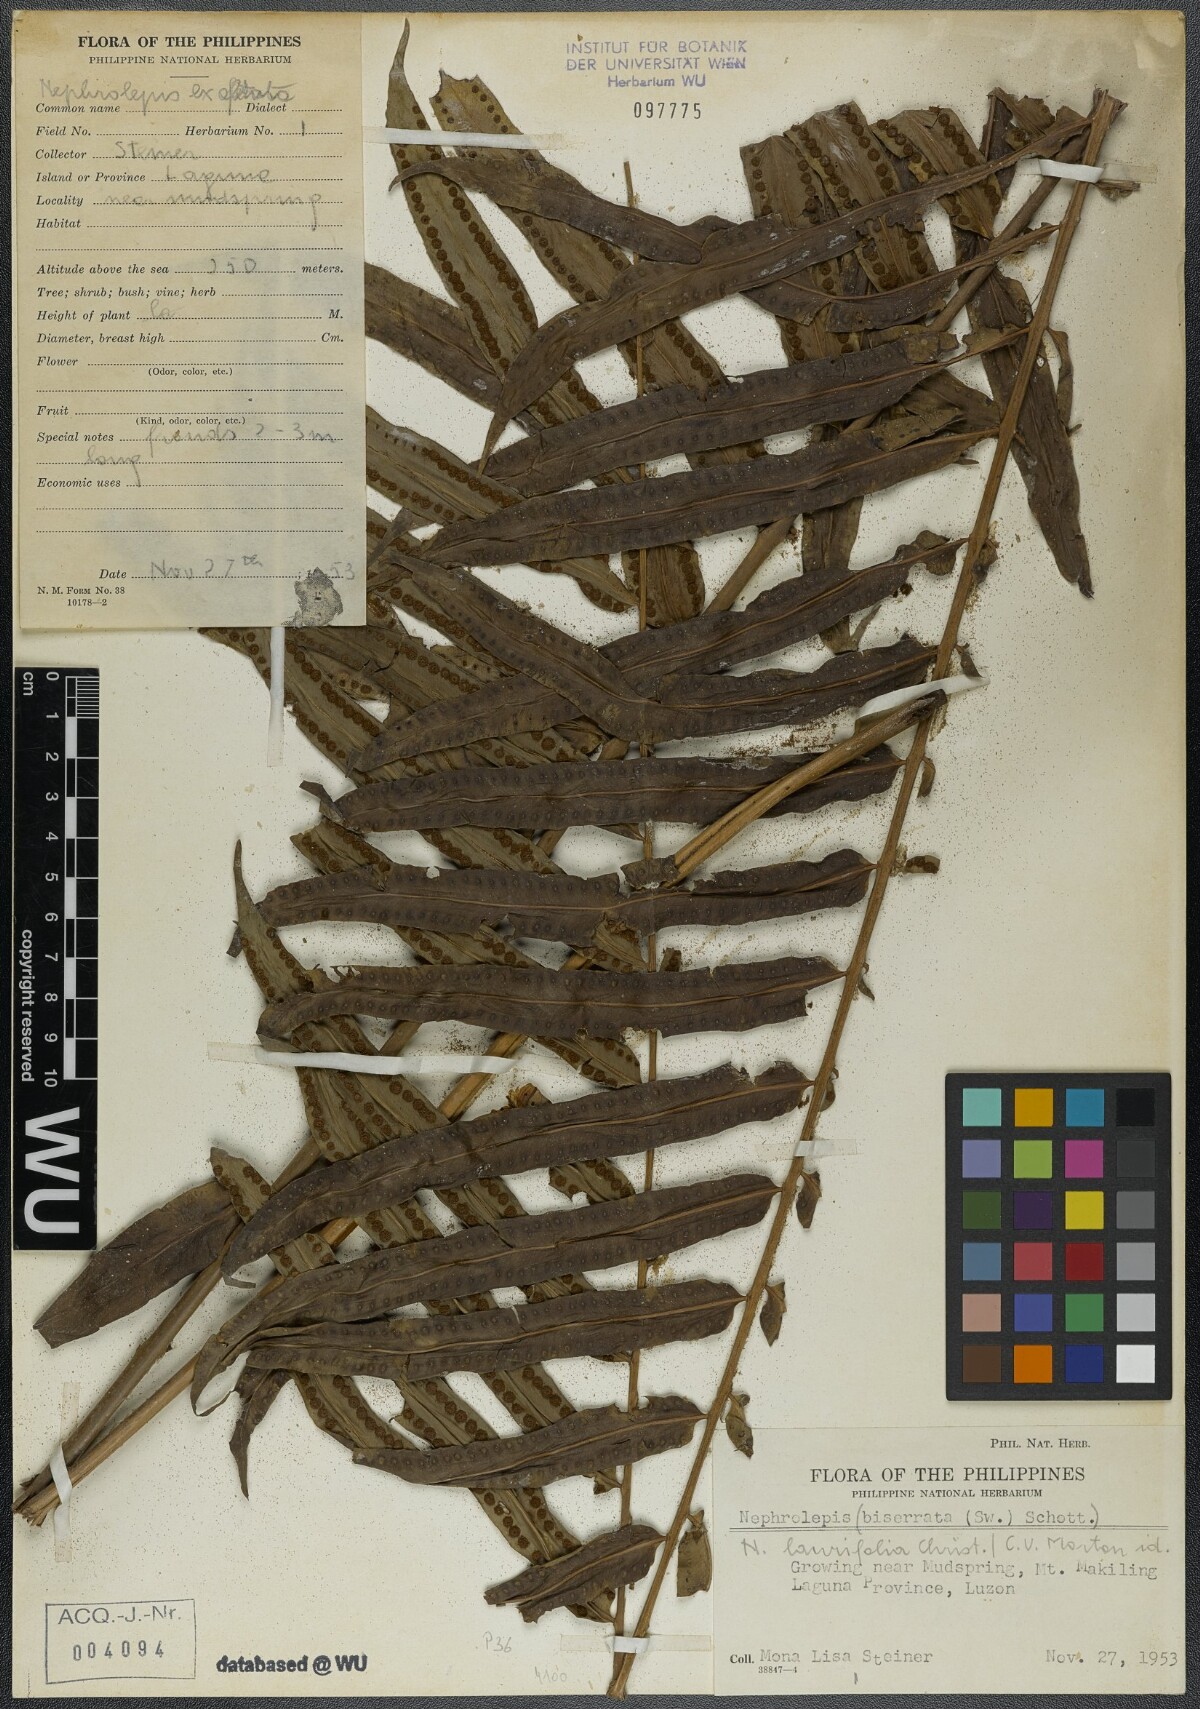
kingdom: Plantae
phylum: Tracheophyta
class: Polypodiopsida
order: Polypodiales
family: Nephrolepidaceae
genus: Nephrolepis
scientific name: Nephrolepis biserrata
